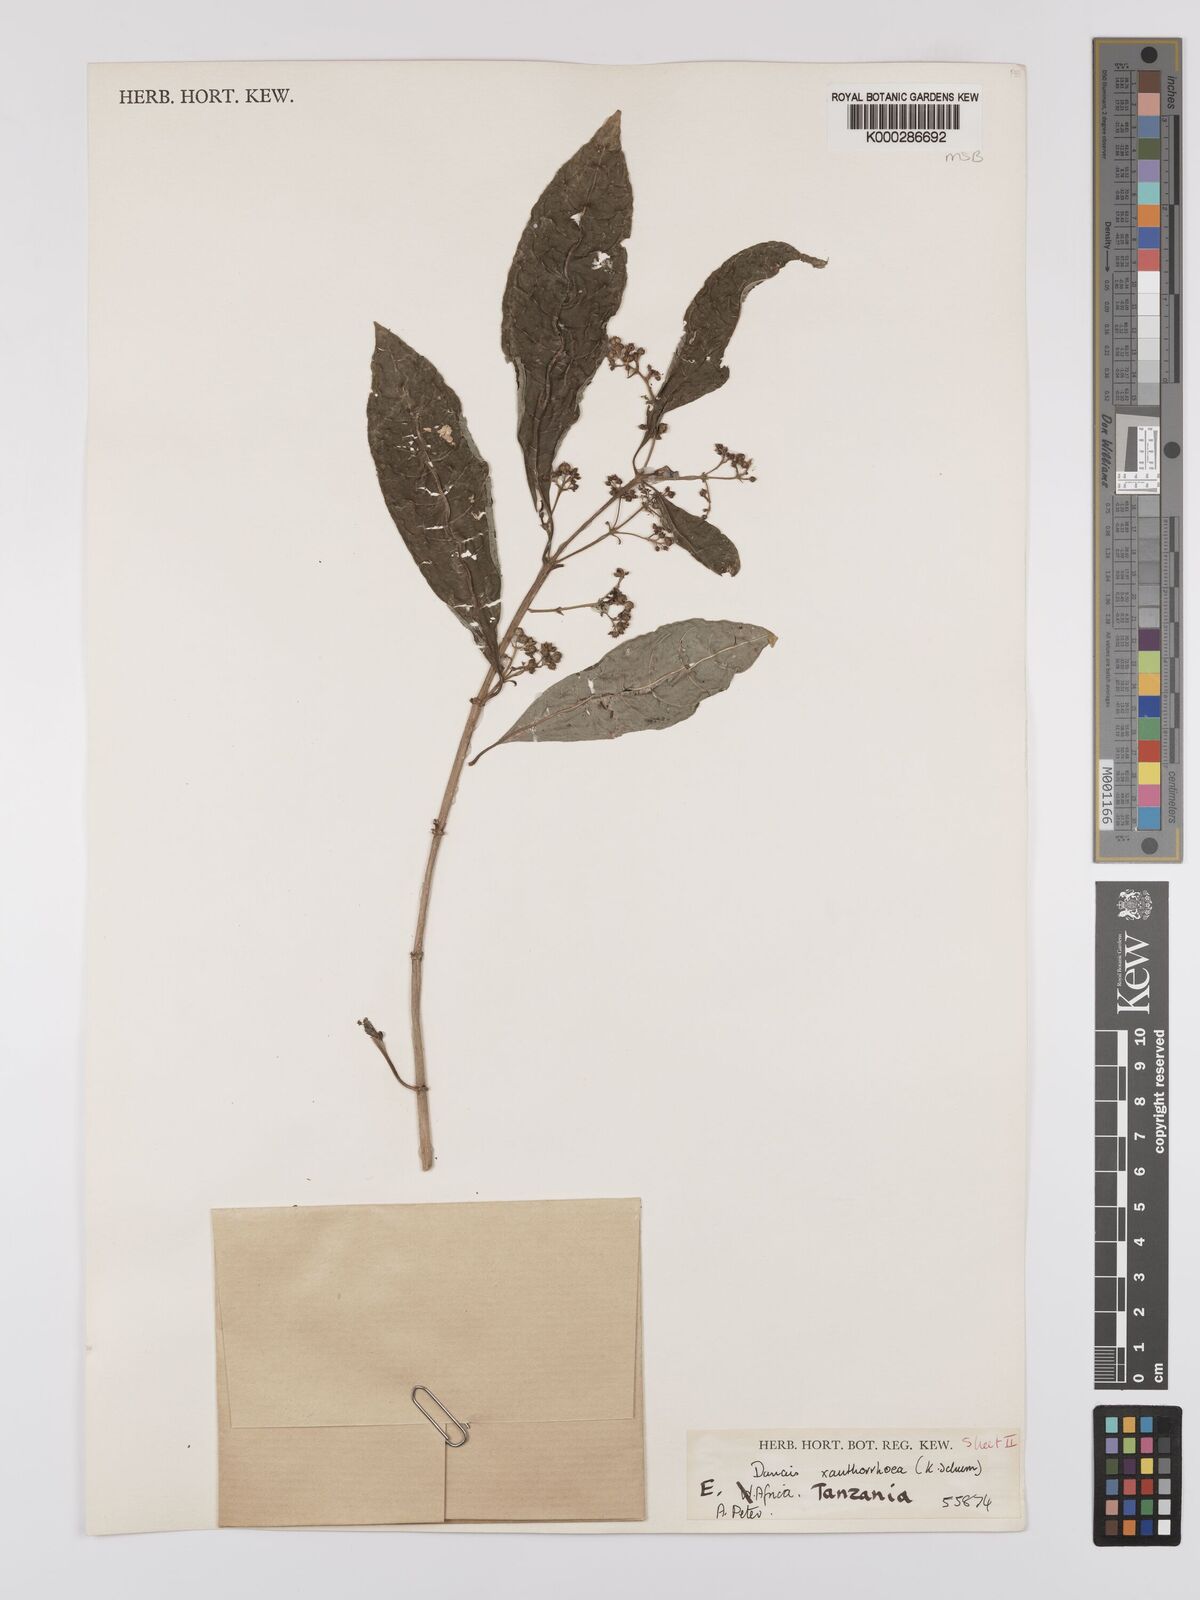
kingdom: Plantae
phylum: Tracheophyta
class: Magnoliopsida
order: Gentianales
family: Rubiaceae
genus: Danais
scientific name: Danais xanthorrhoea
